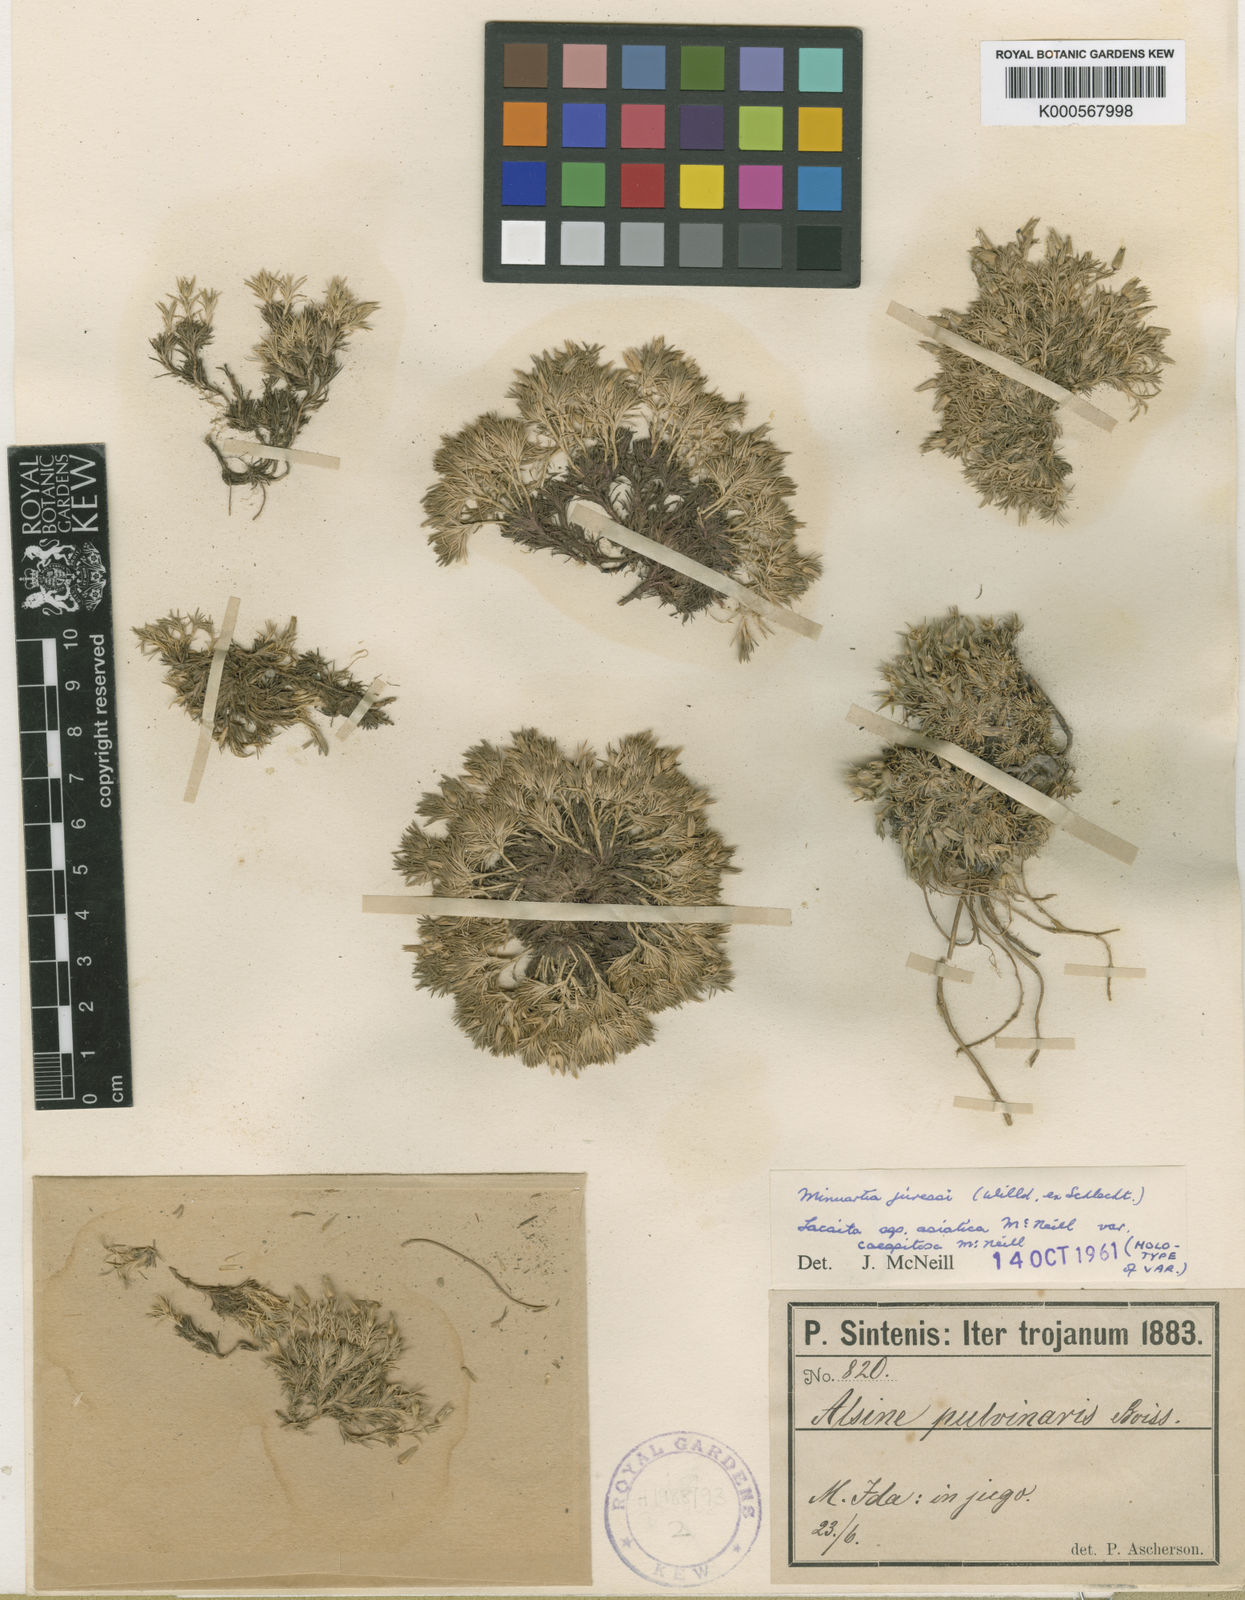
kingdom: Plantae
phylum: Tracheophyta
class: Magnoliopsida
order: Caryophyllales
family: Caryophyllaceae
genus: Minuartia
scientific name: Minuartia recurva
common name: Recurved sandwort
